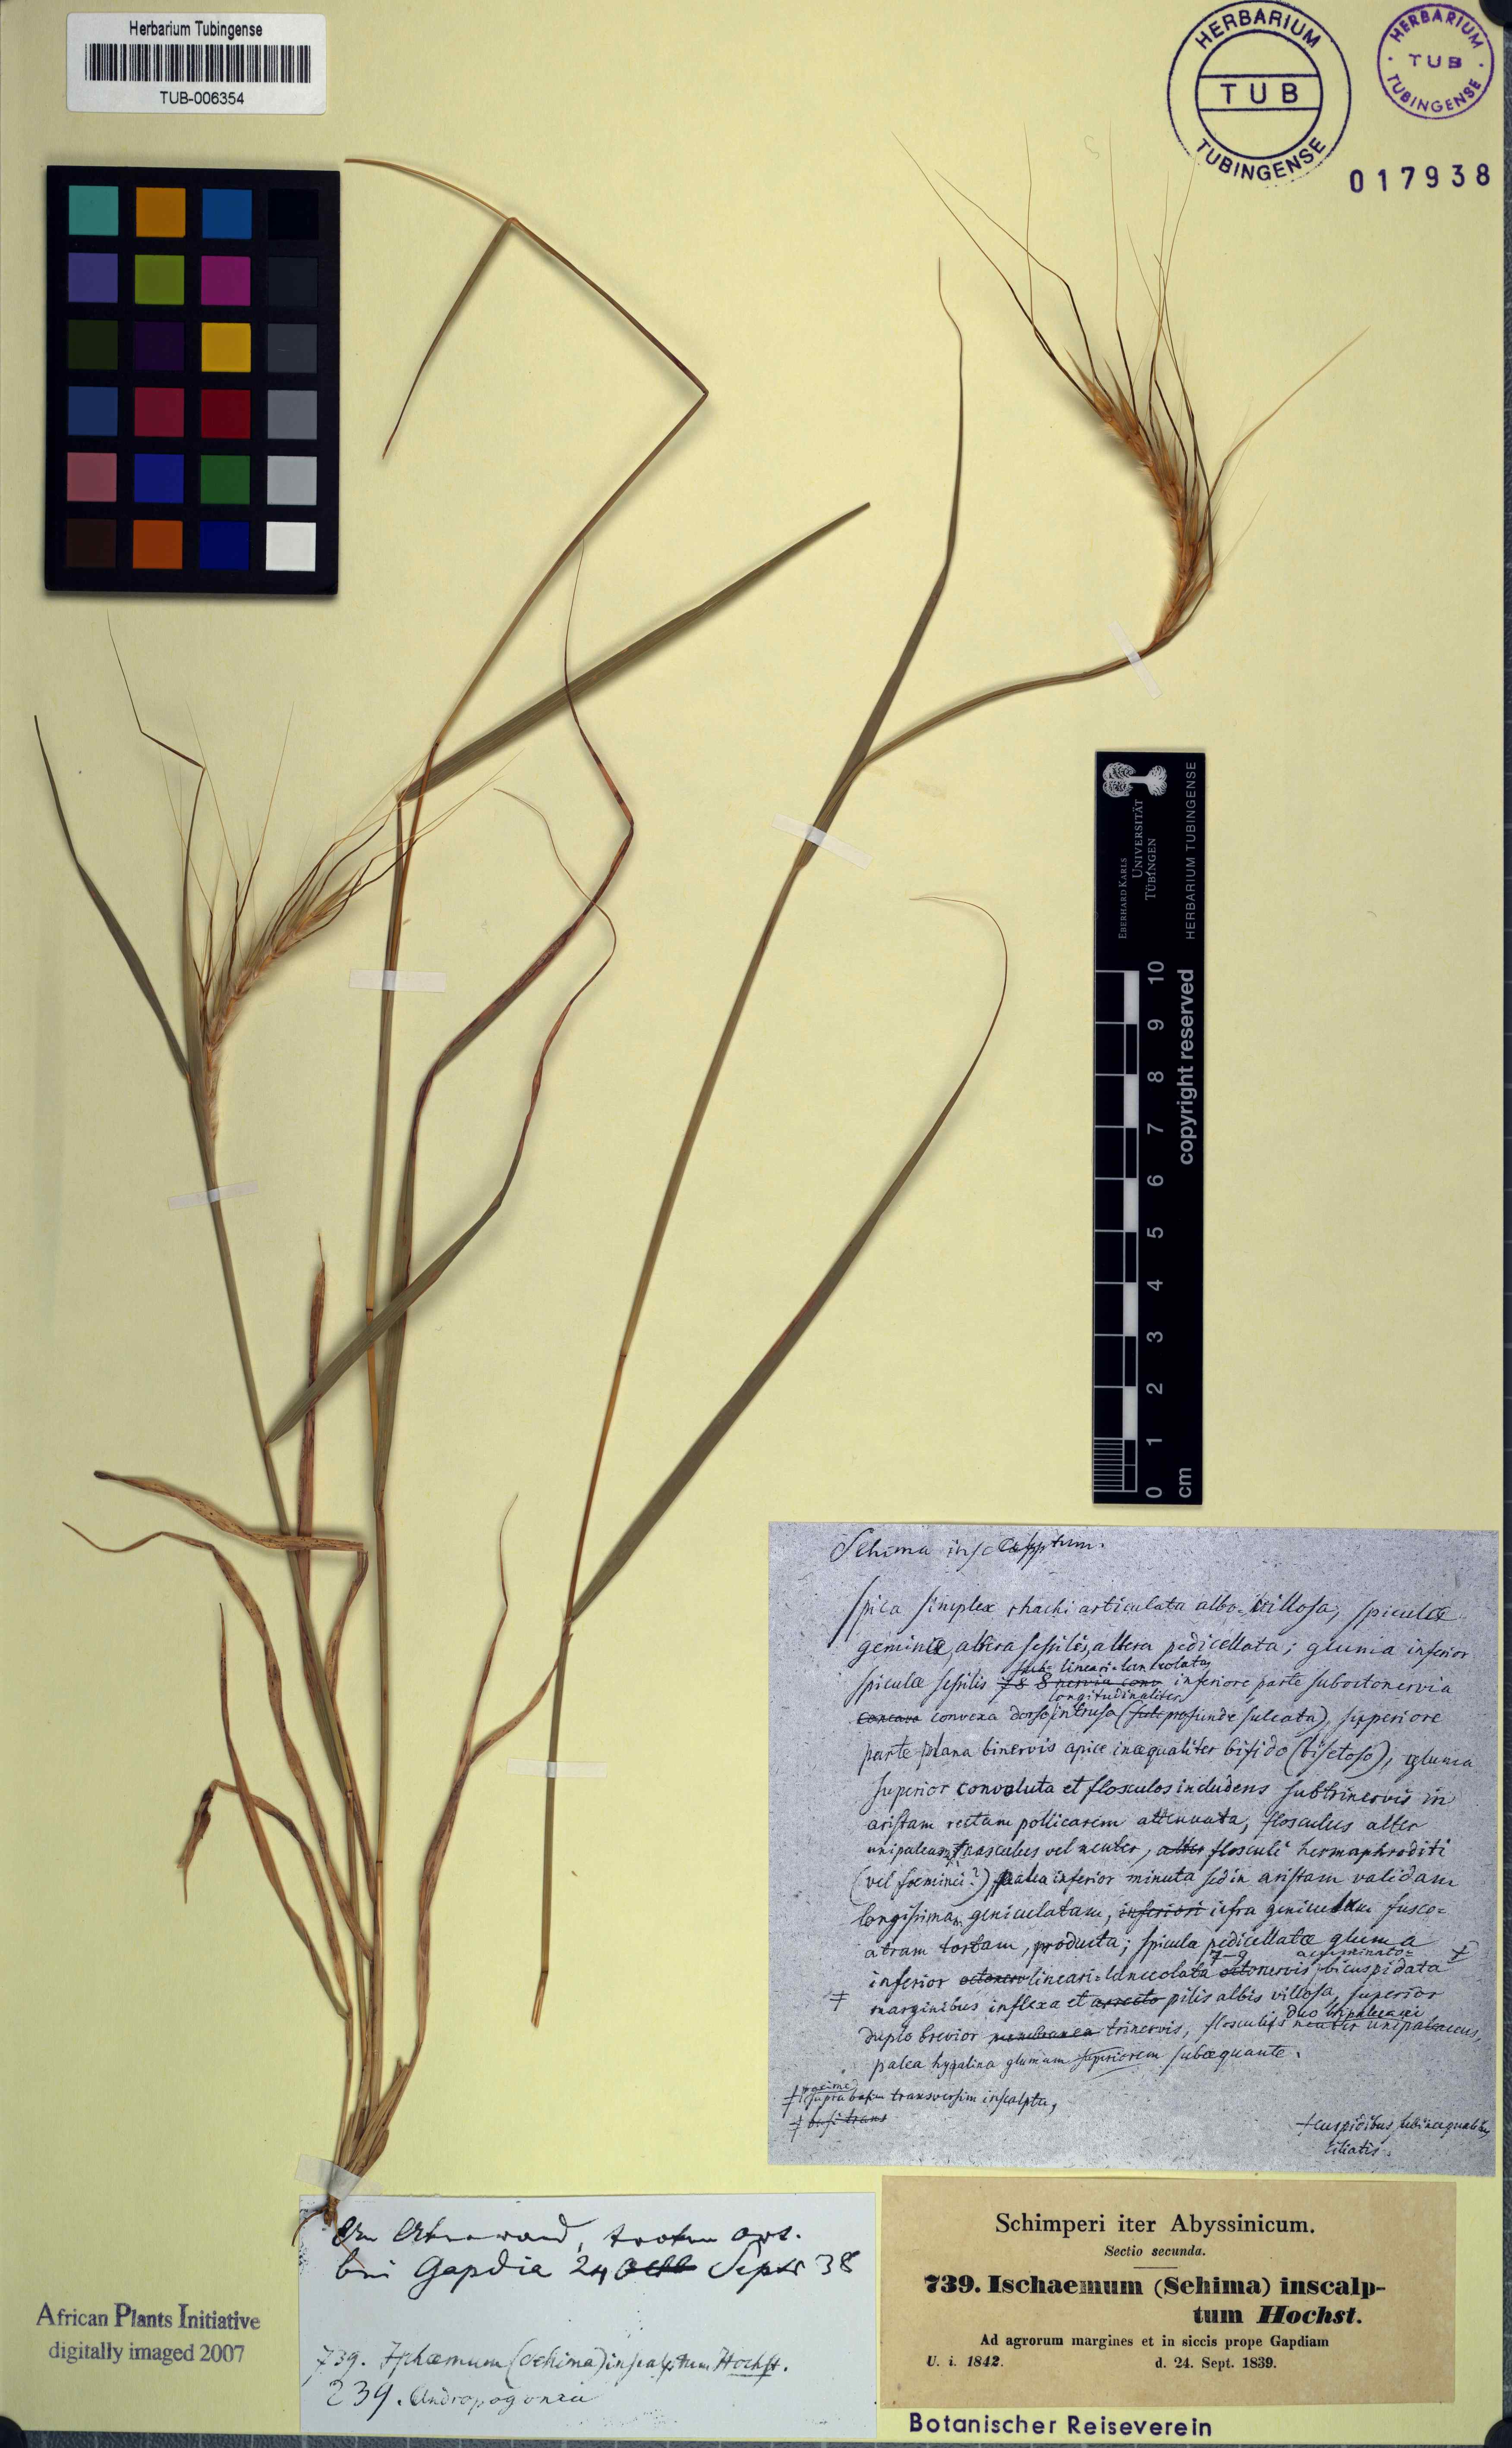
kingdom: Plantae
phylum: Tracheophyta
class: Liliopsida
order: Poales
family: Poaceae
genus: Sehima
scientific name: Sehima nervosa
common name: Rat-tail grass
